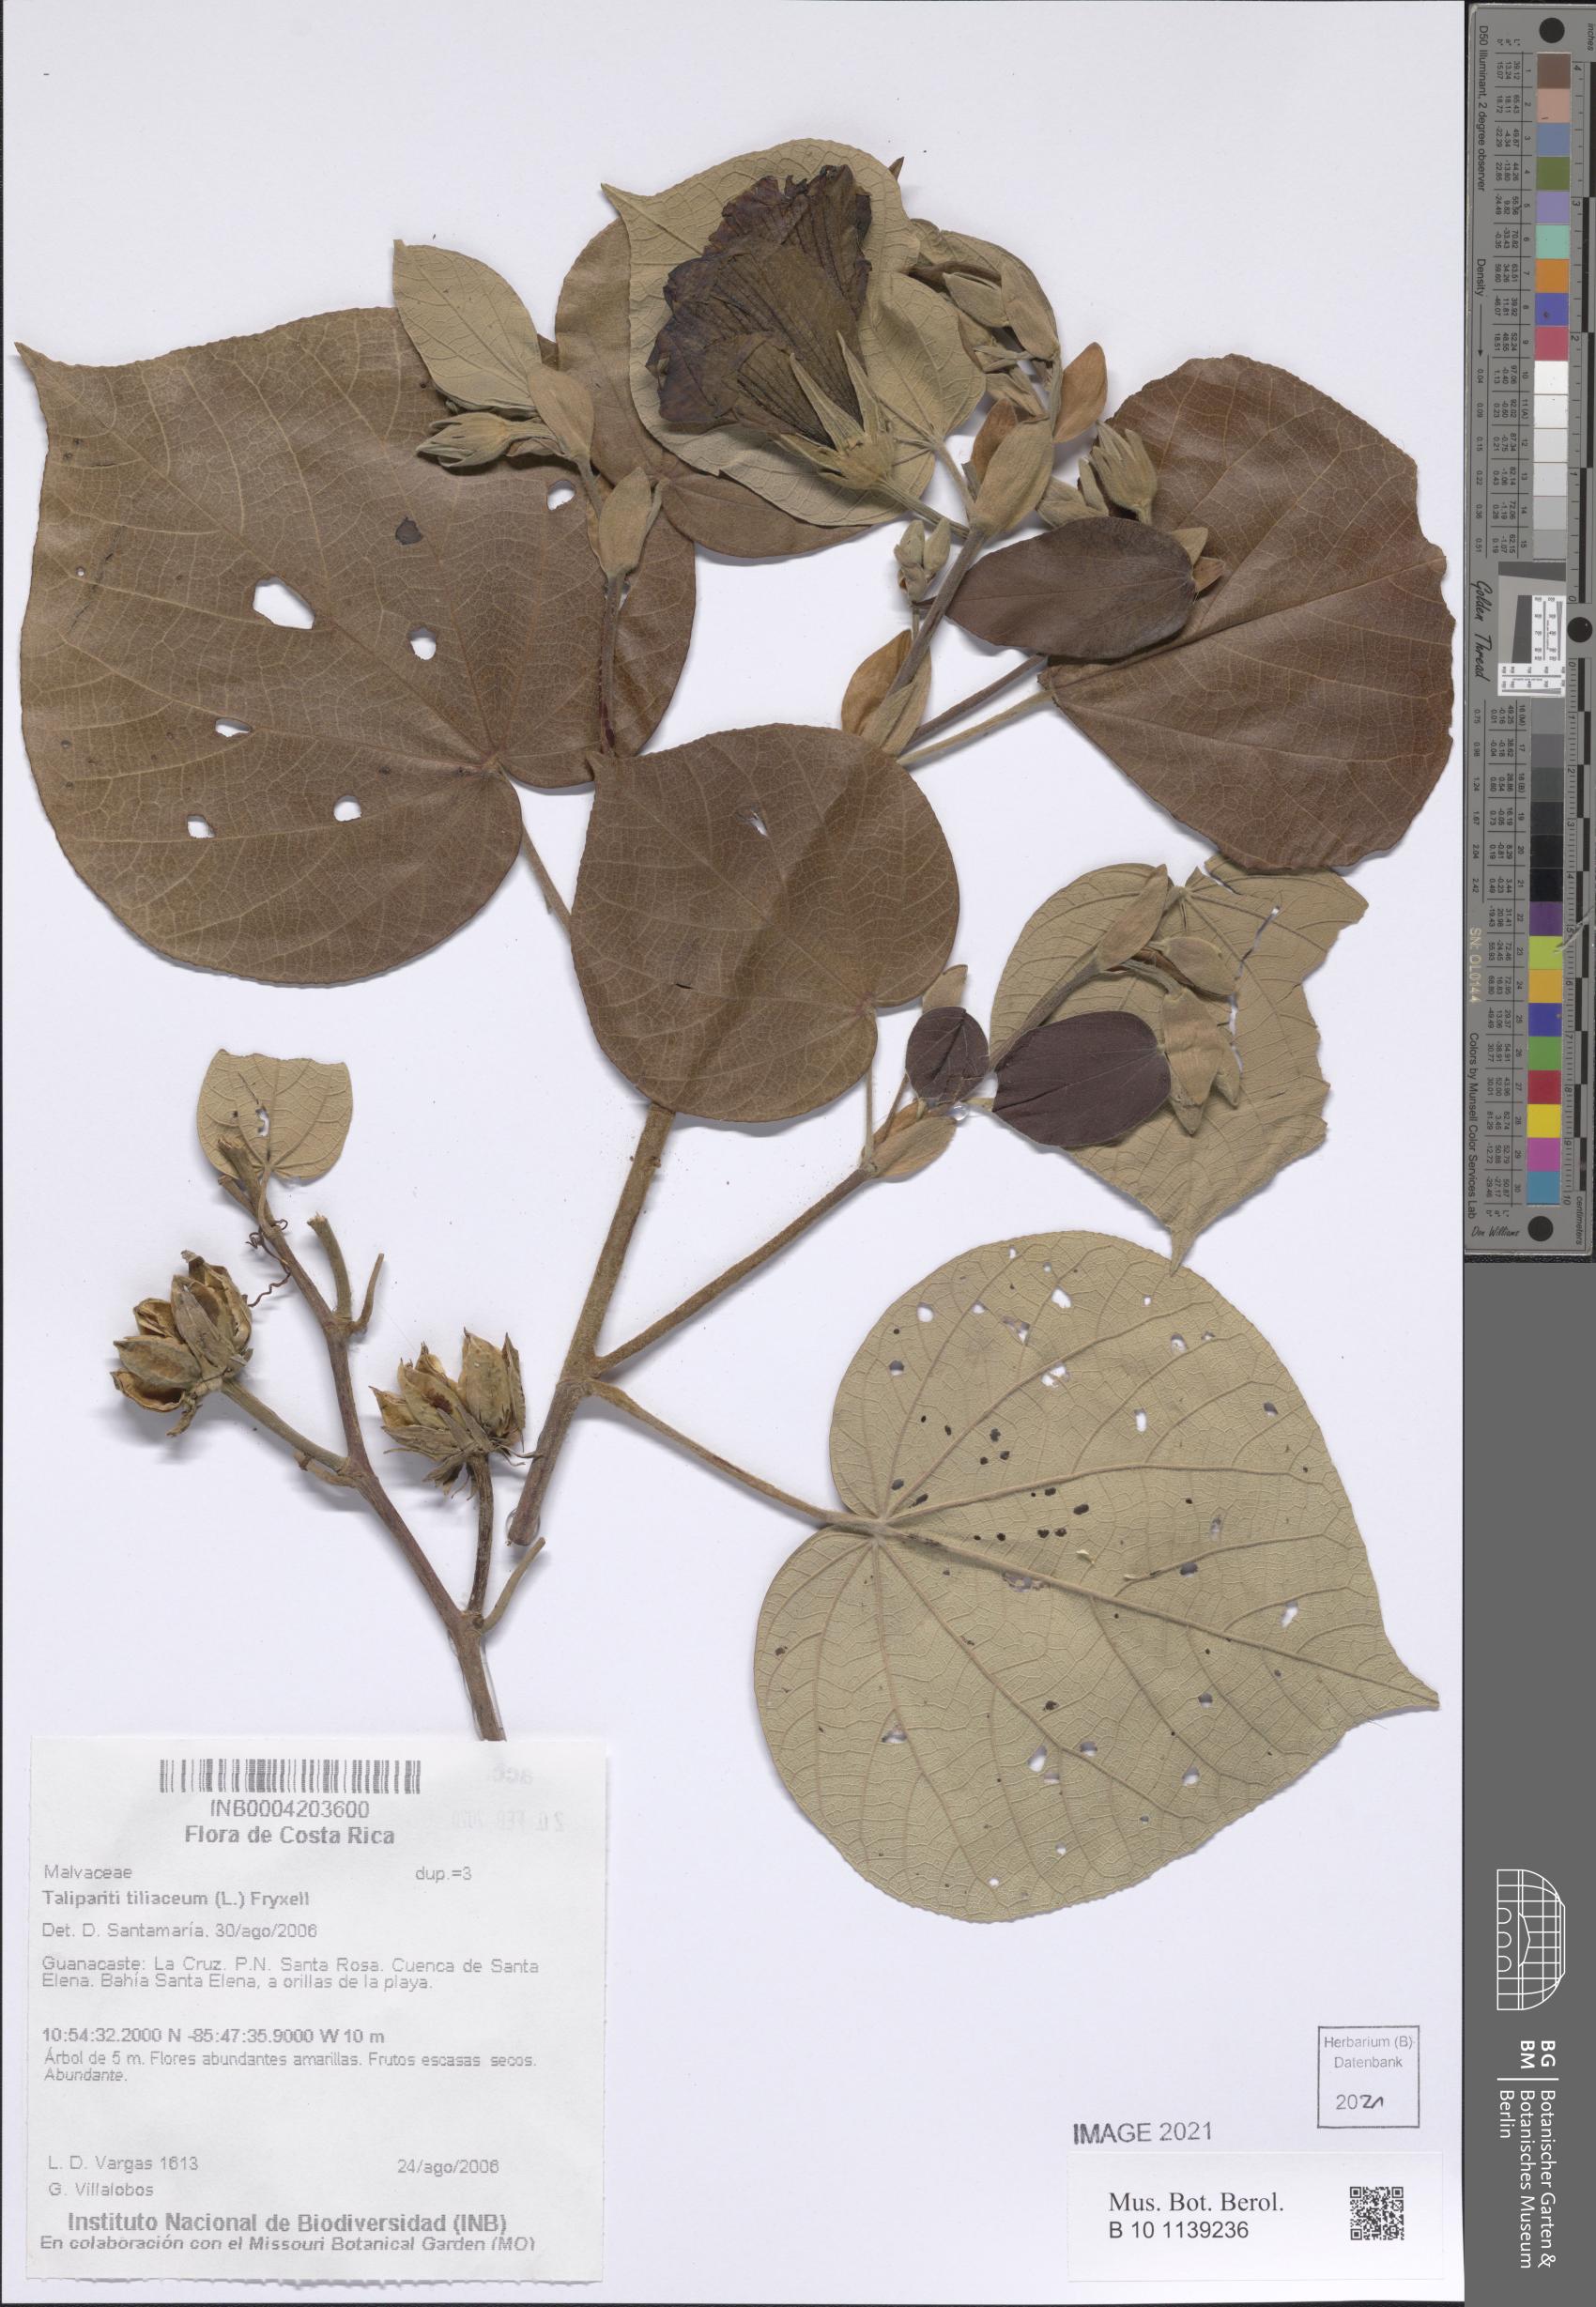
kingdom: Plantae
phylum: Tracheophyta
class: Magnoliopsida
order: Malvales
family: Malvaceae
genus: Talipariti
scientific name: Talipariti tiliaceum
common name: Sea hibiscus
